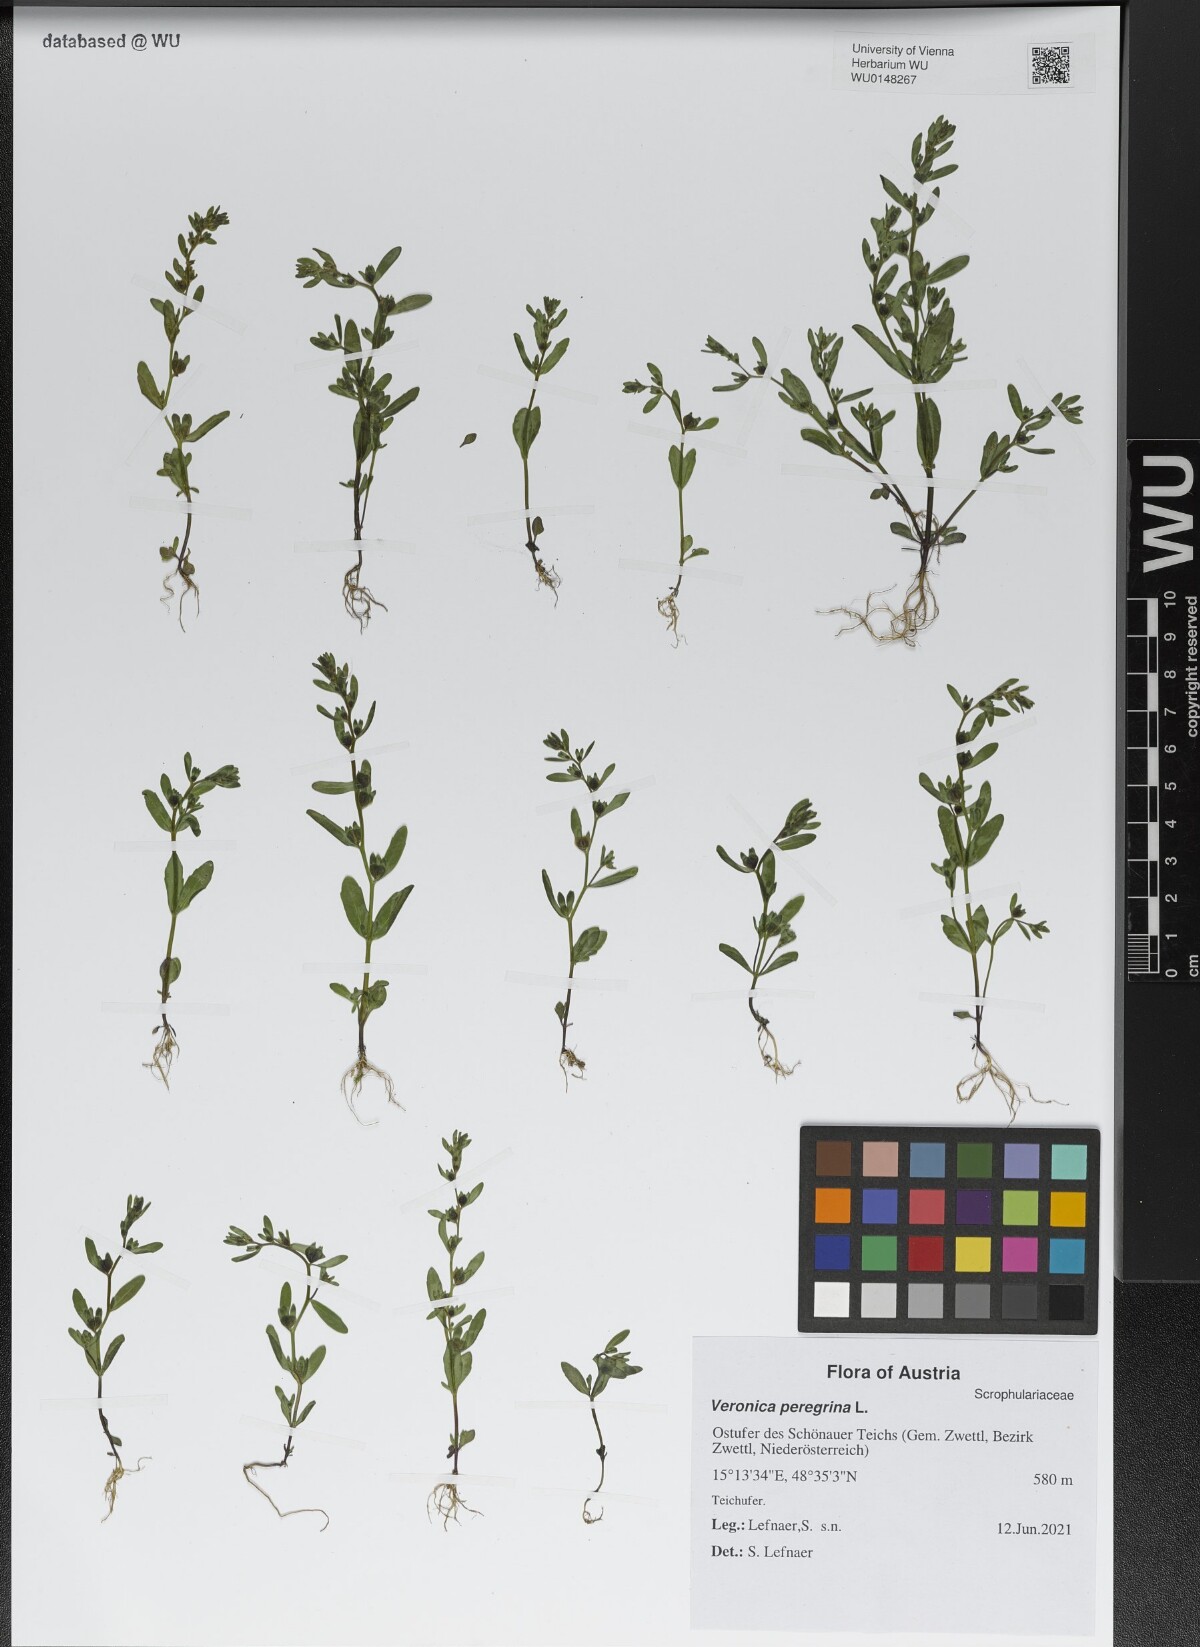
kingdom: Plantae
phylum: Tracheophyta
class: Magnoliopsida
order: Lamiales
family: Plantaginaceae
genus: Veronica
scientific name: Veronica peregrina
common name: Neckweed
